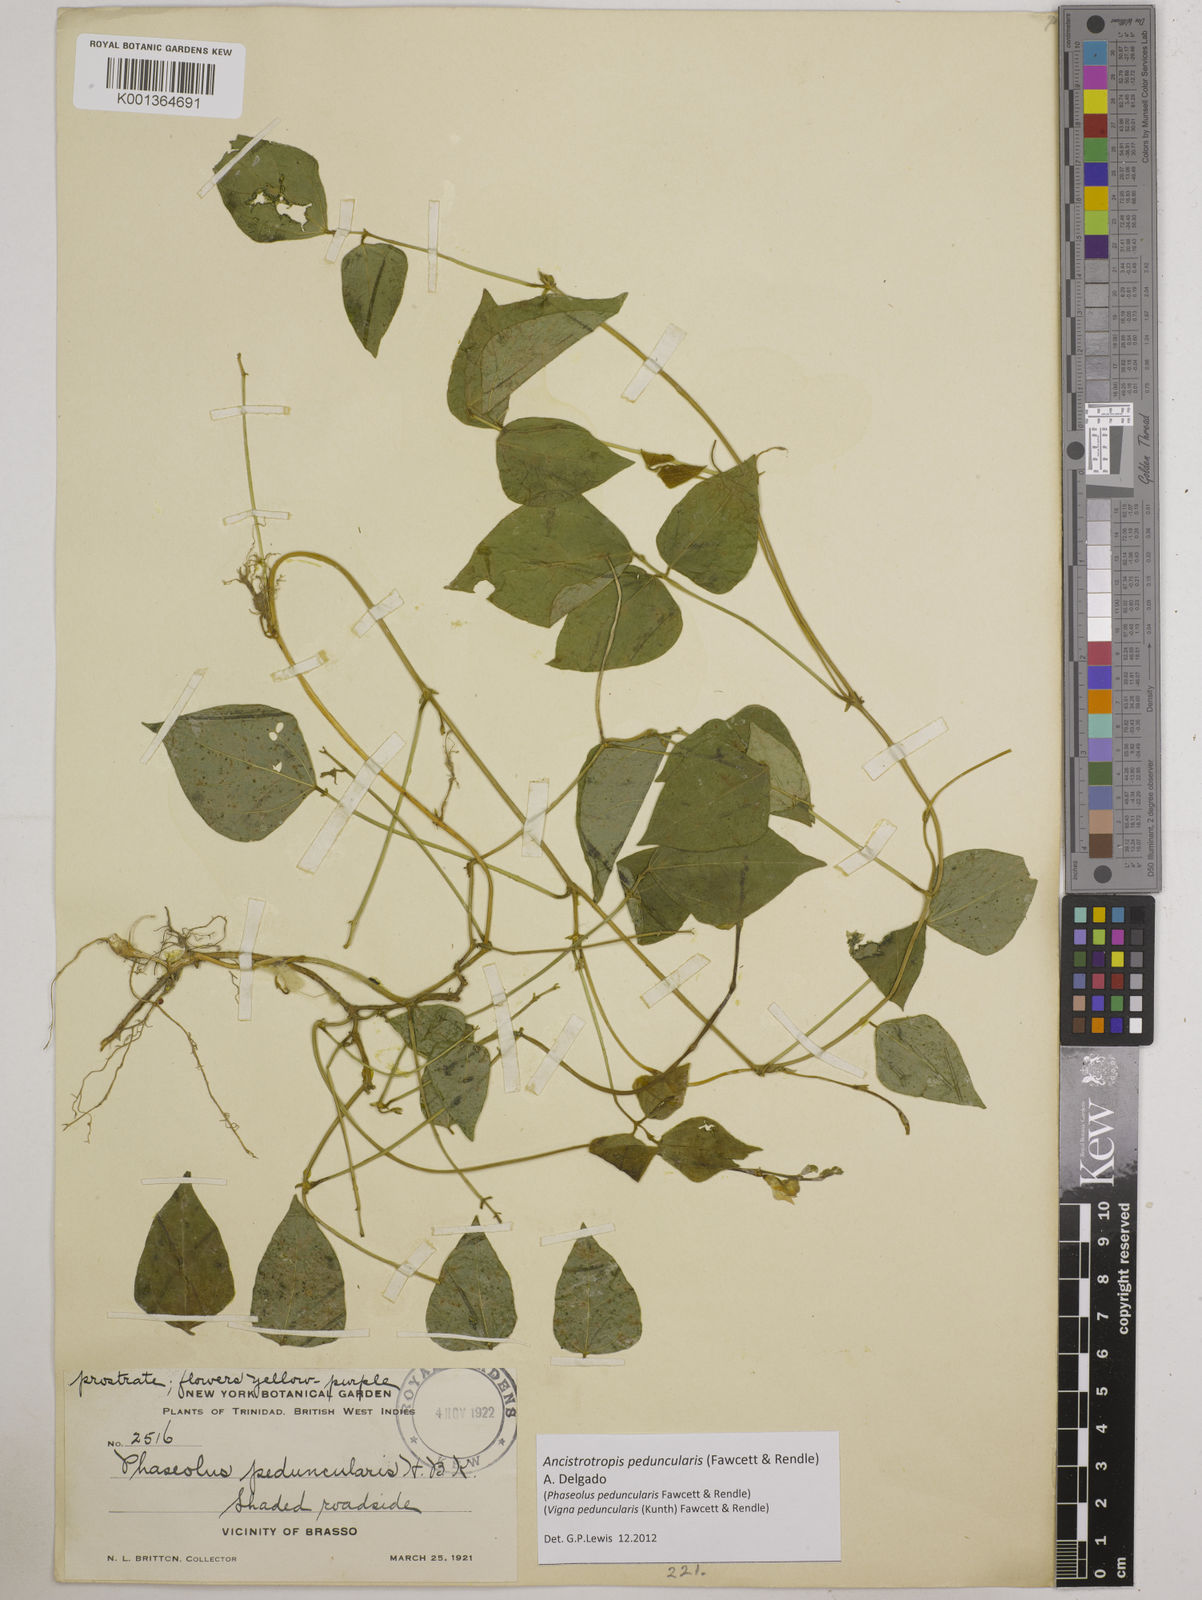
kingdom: Plantae
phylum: Tracheophyta
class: Magnoliopsida
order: Fabales
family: Fabaceae
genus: Ancistrotropis
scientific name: Ancistrotropis peduncularis
